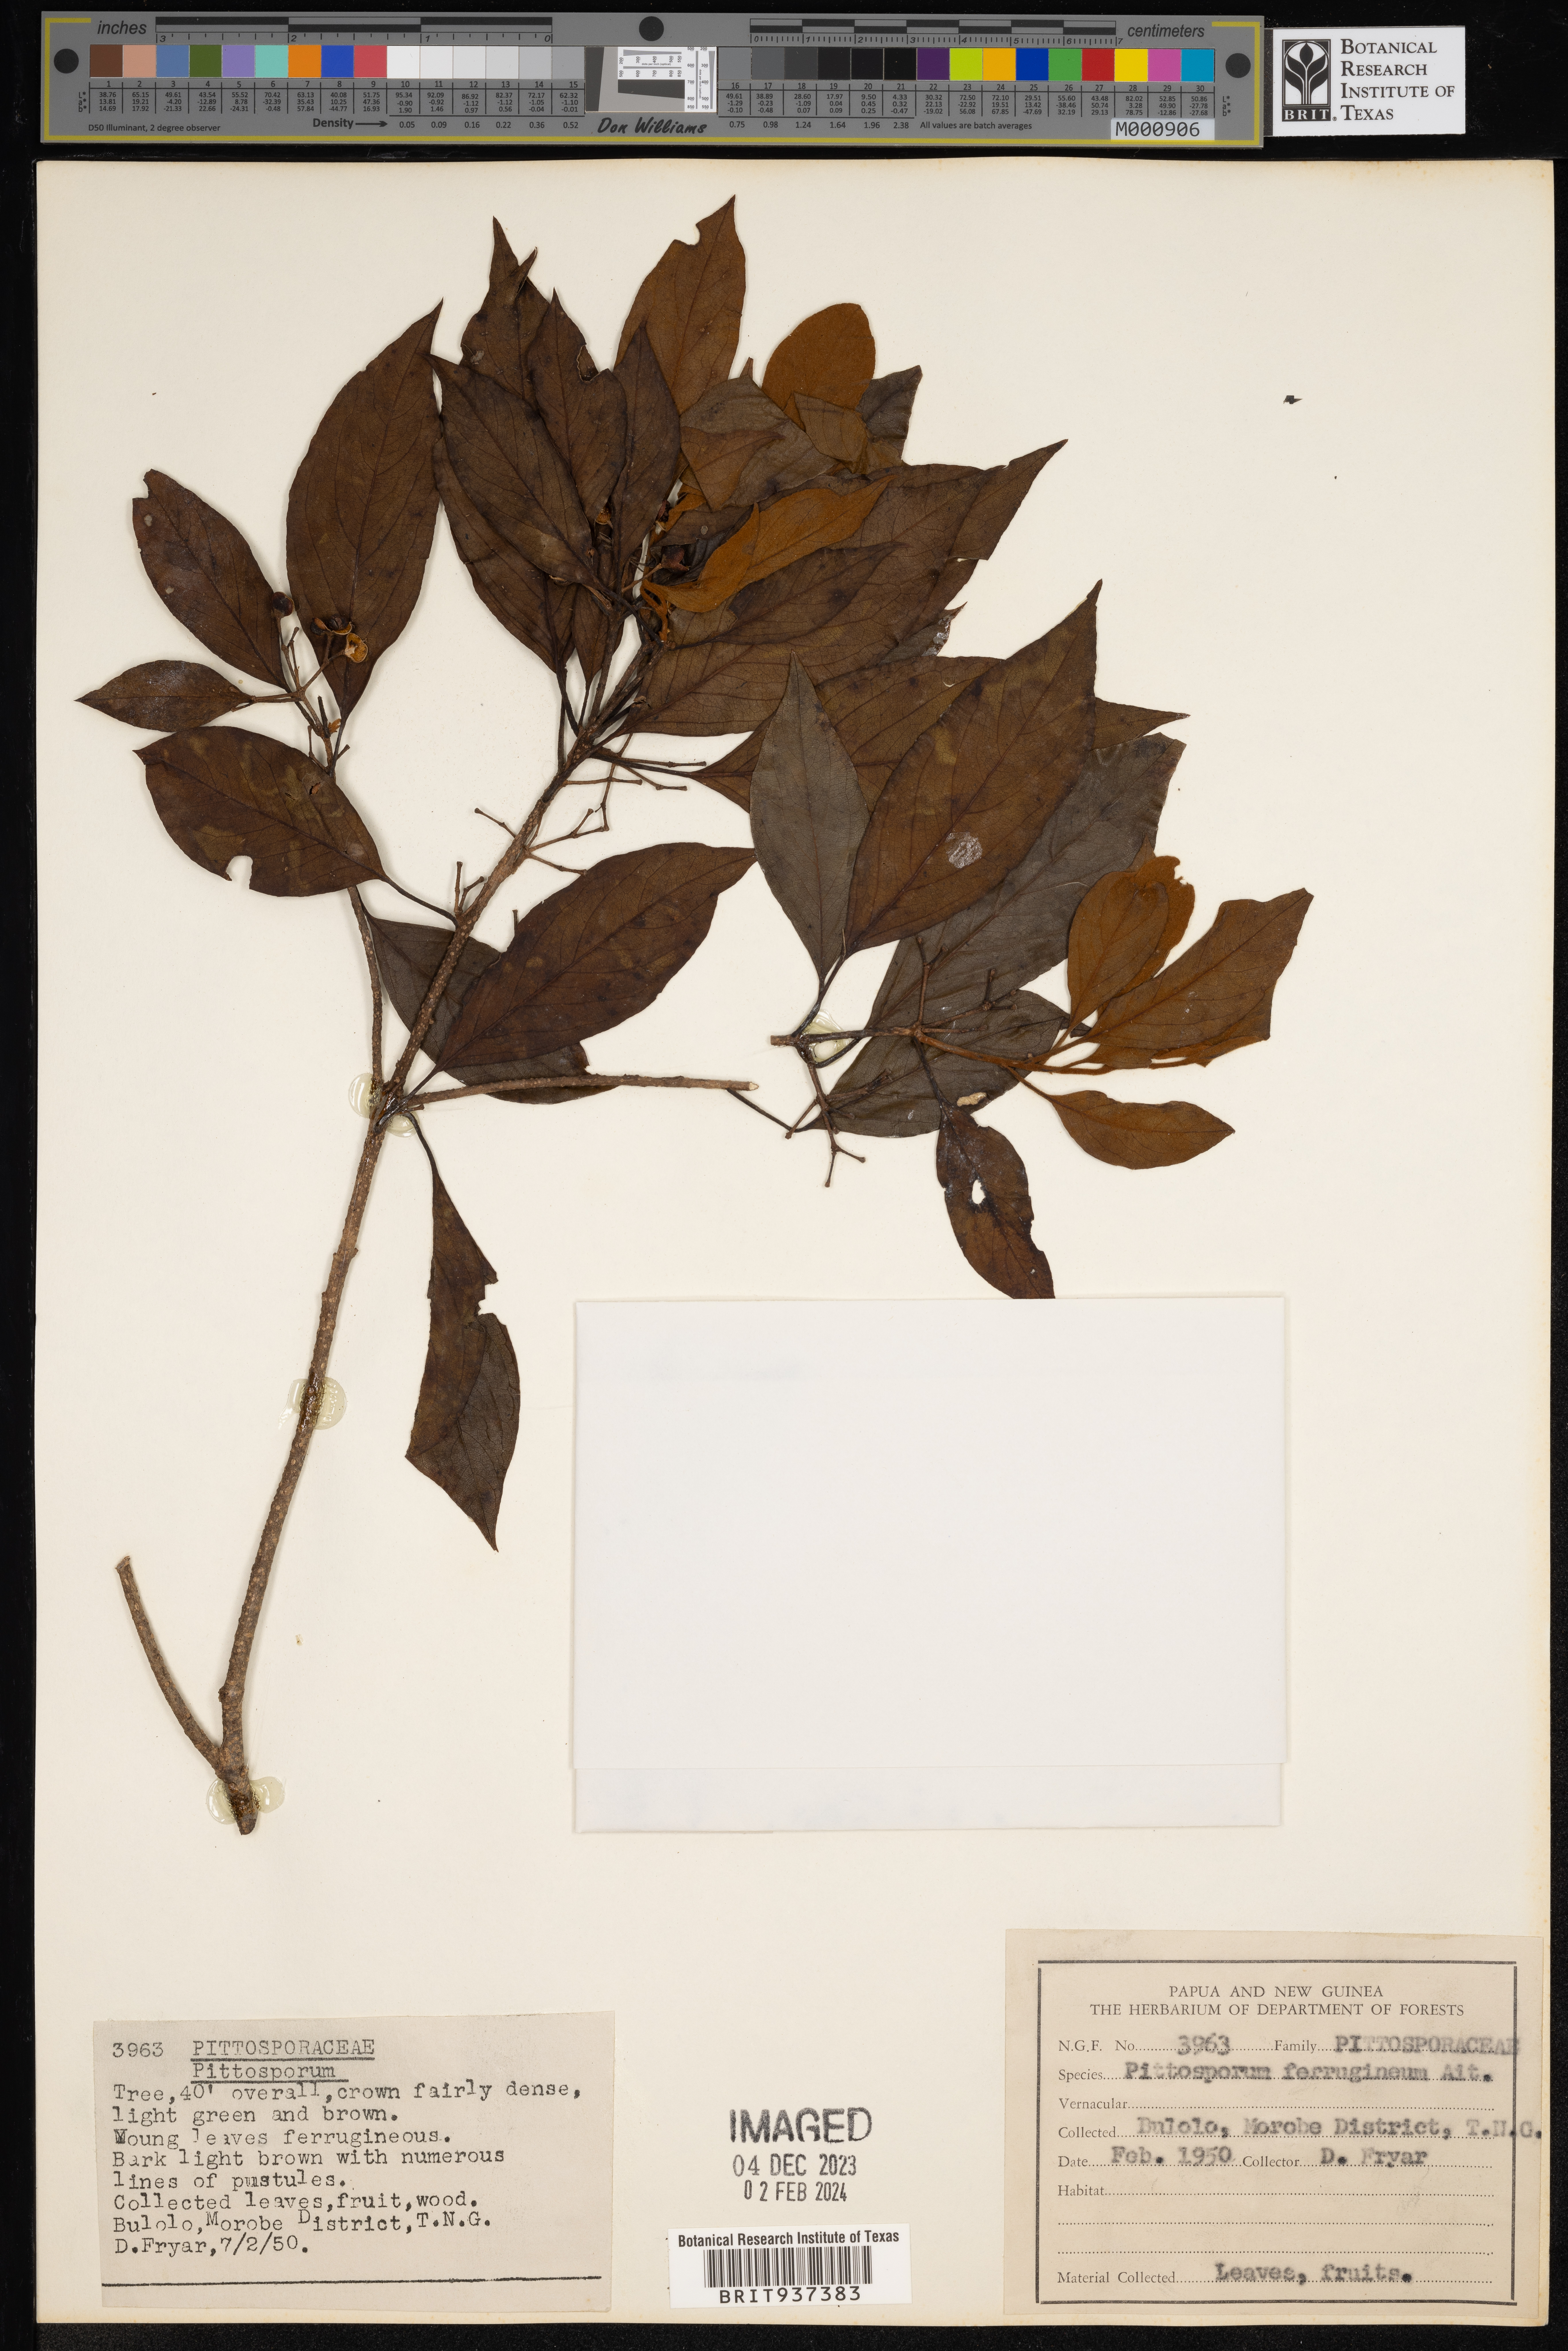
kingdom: Plantae
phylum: Tracheophyta
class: Magnoliopsida
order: Apiales
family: Pittosporaceae
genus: Pittosporum
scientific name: Pittosporum ferrugineum
